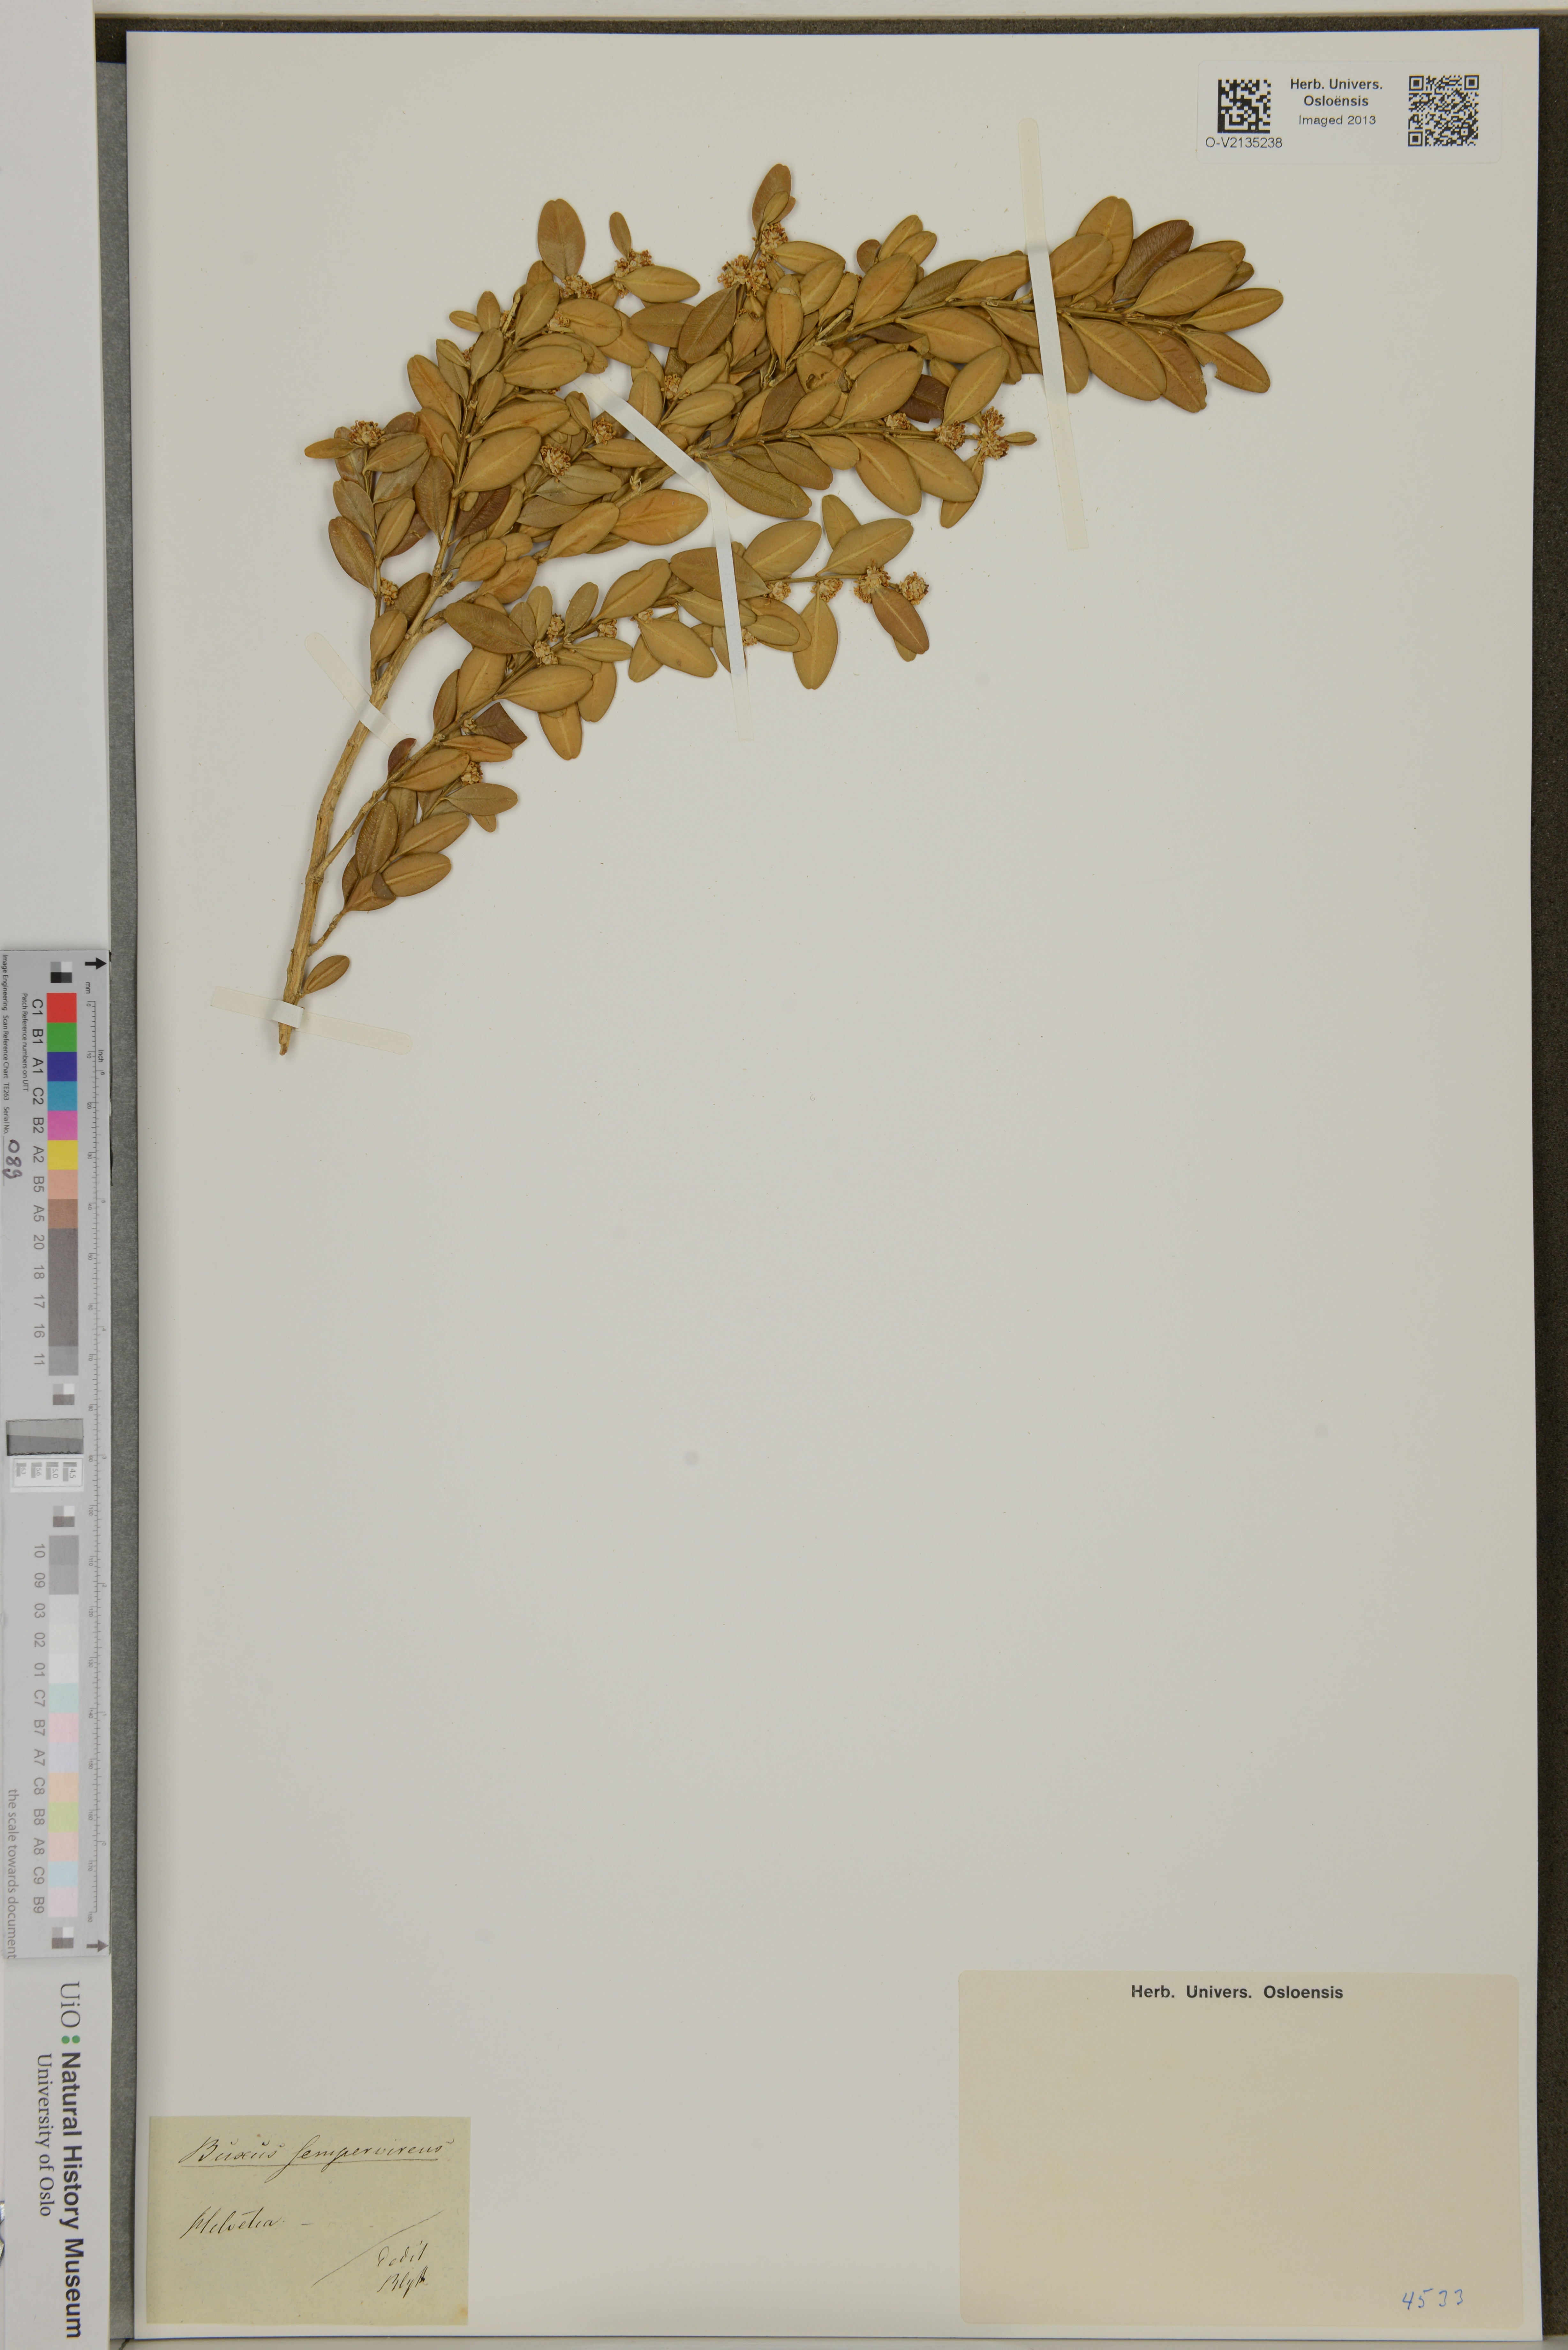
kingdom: Plantae
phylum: Tracheophyta
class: Magnoliopsida
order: Buxales
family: Buxaceae
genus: Buxus
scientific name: Buxus sempervirens
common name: Box
